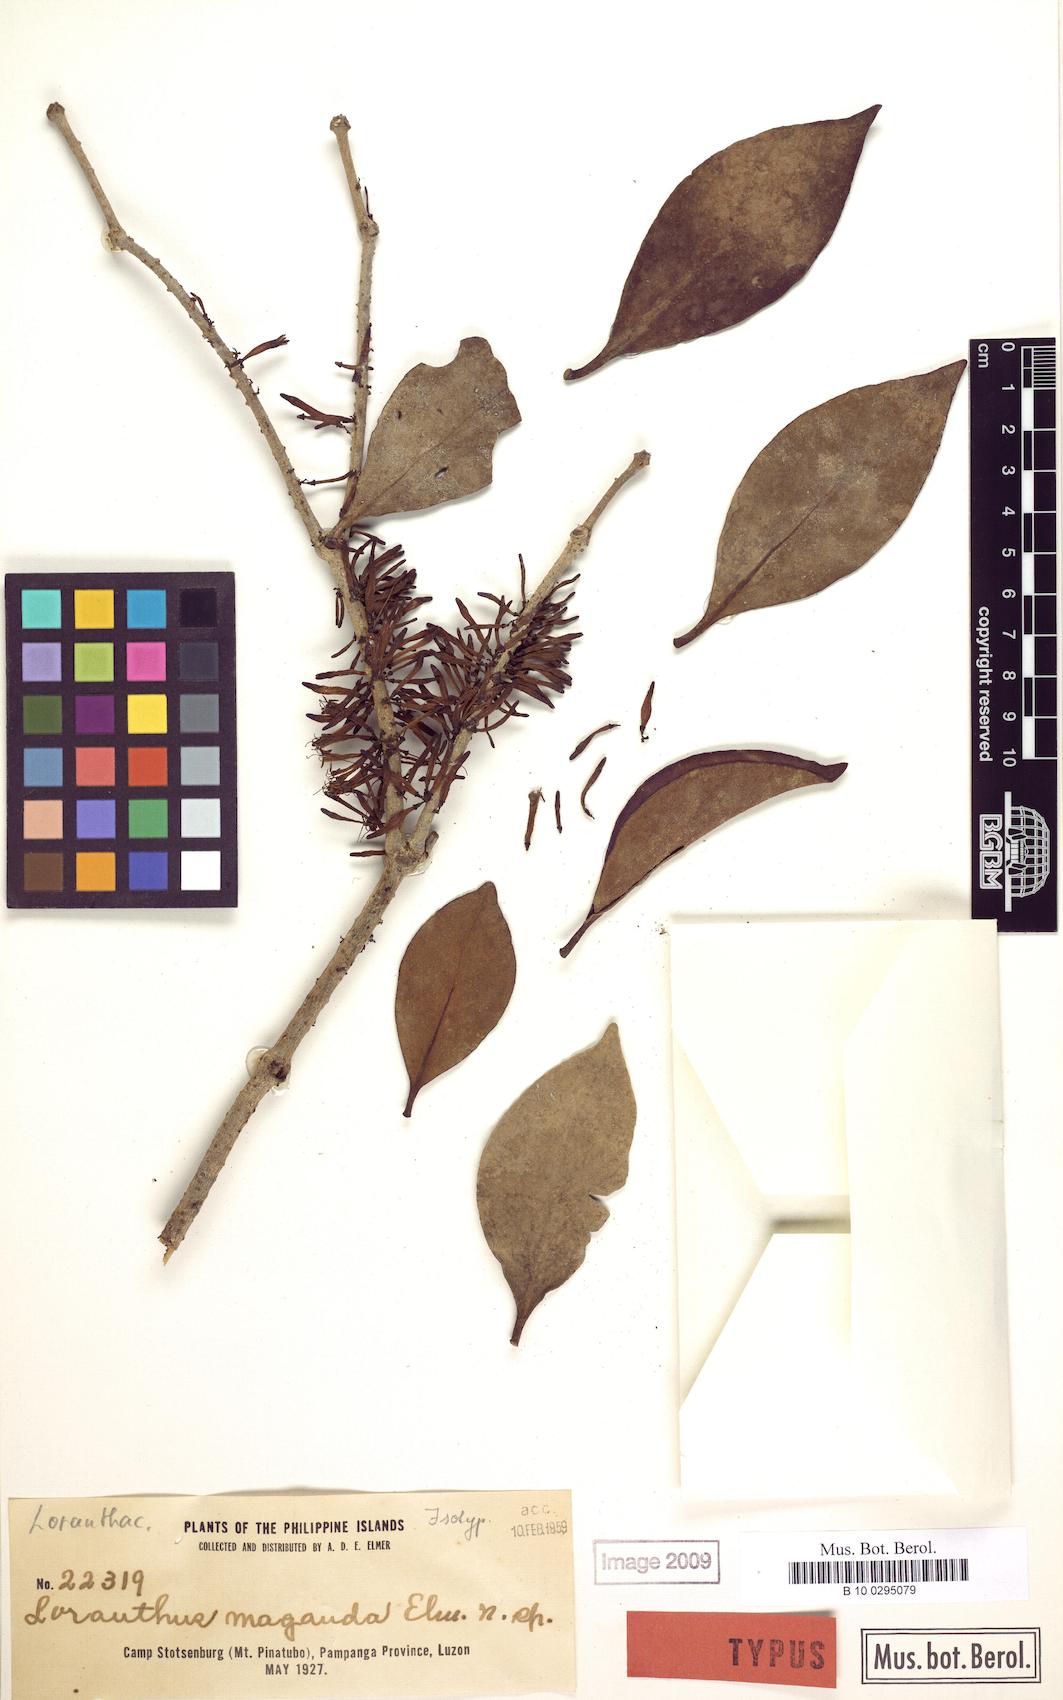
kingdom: Plantae
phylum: Tracheophyta
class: Magnoliopsida
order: Santalales
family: Loranthaceae
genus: Amyema
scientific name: Amyema fasciculata
